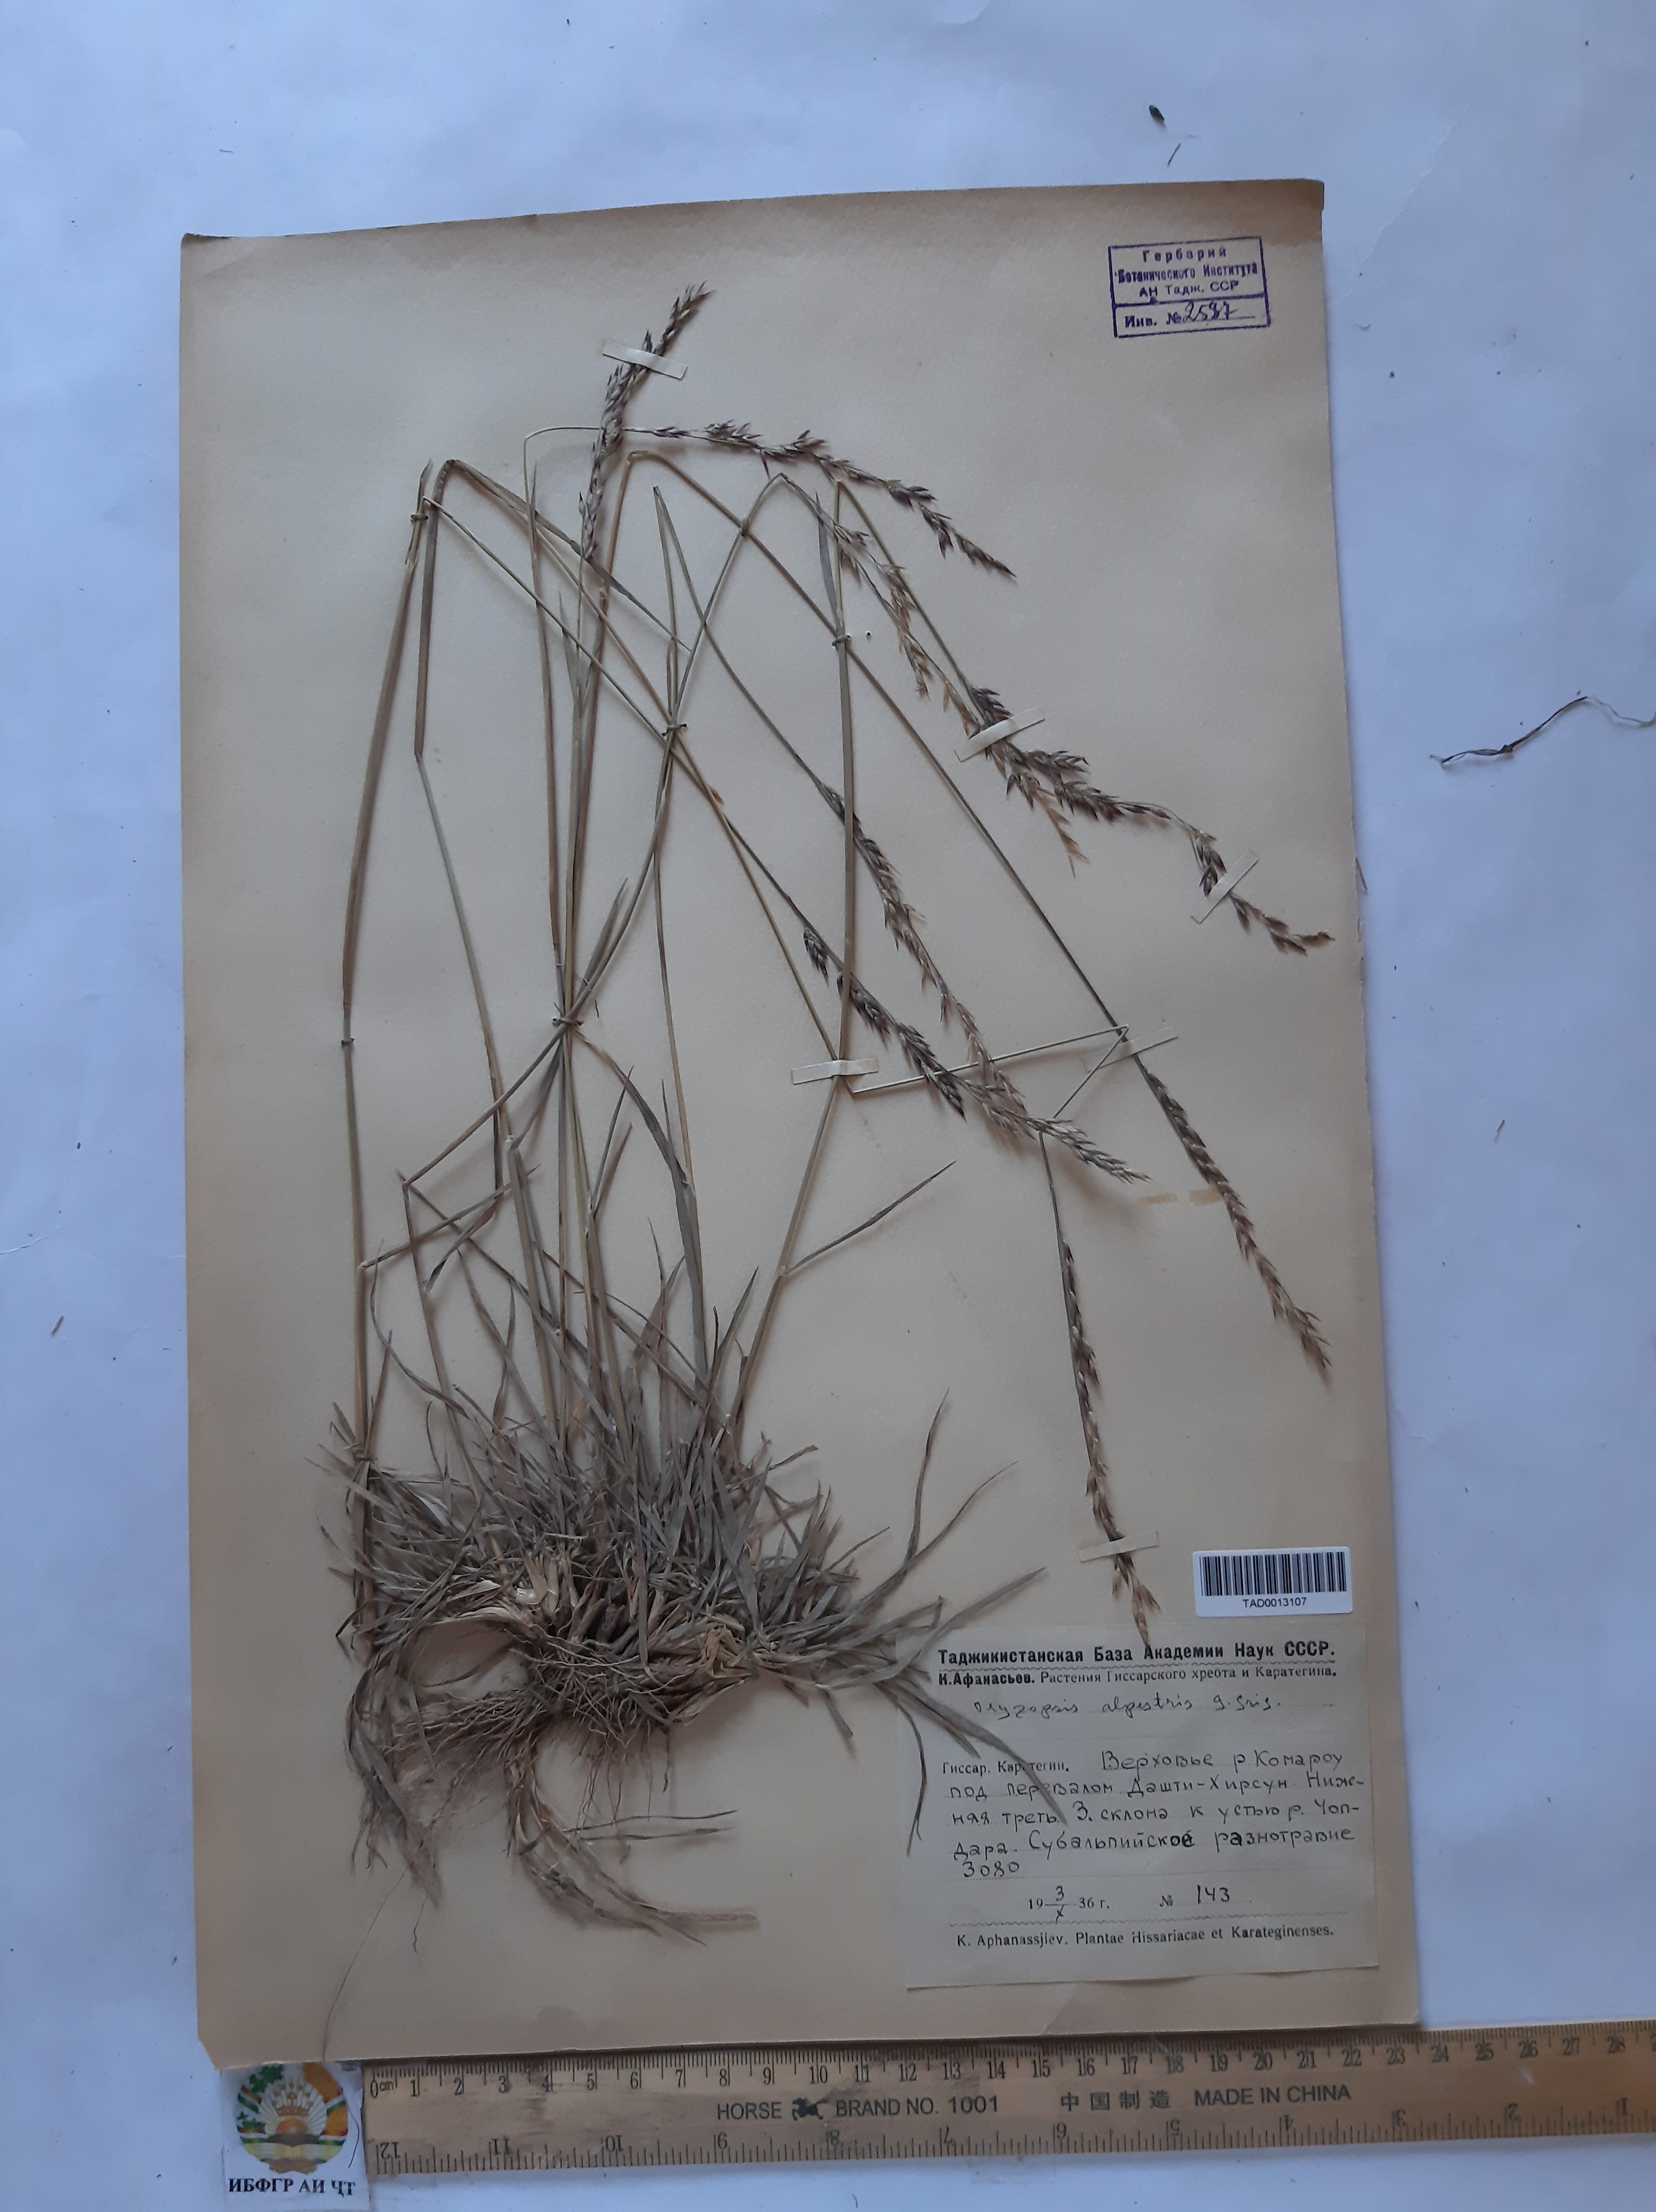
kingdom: Plantae
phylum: Tracheophyta
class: Liliopsida
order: Poales
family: Poaceae
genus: Piptatherum
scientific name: Piptatherum alpestre
